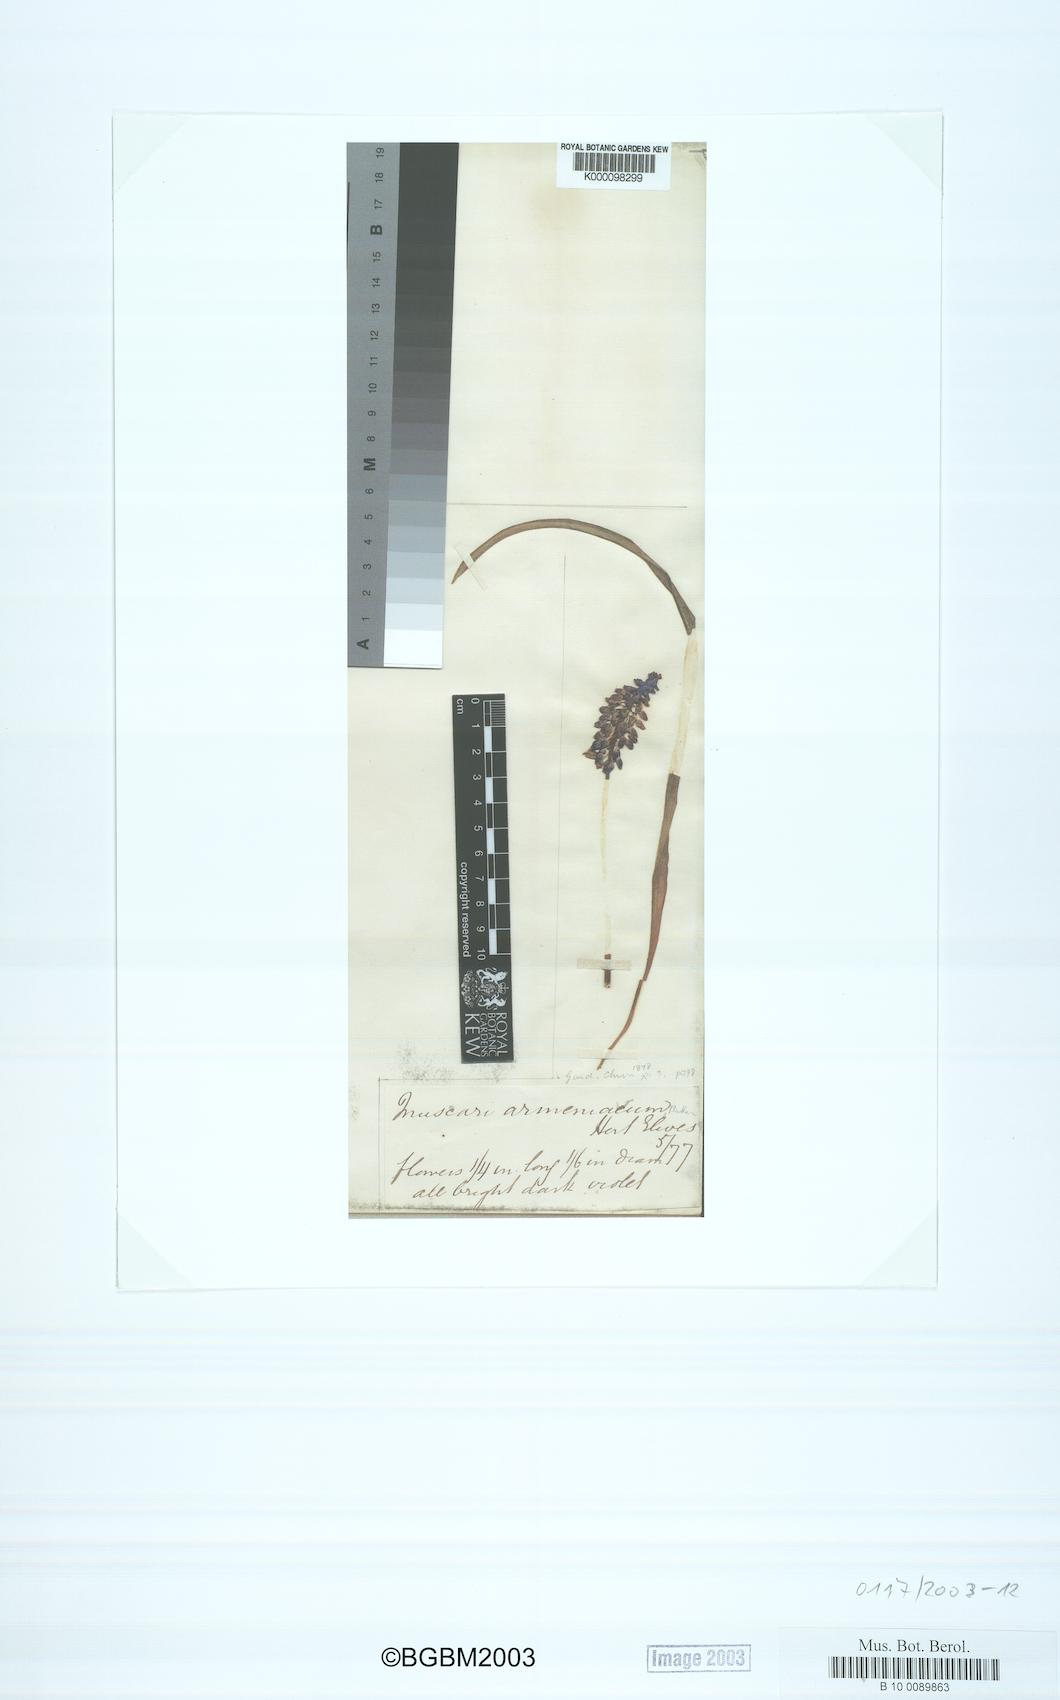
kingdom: Plantae
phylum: Tracheophyta
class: Liliopsida
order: Asparagales
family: Asparagaceae
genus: Muscari
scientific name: Muscari armeniacum
